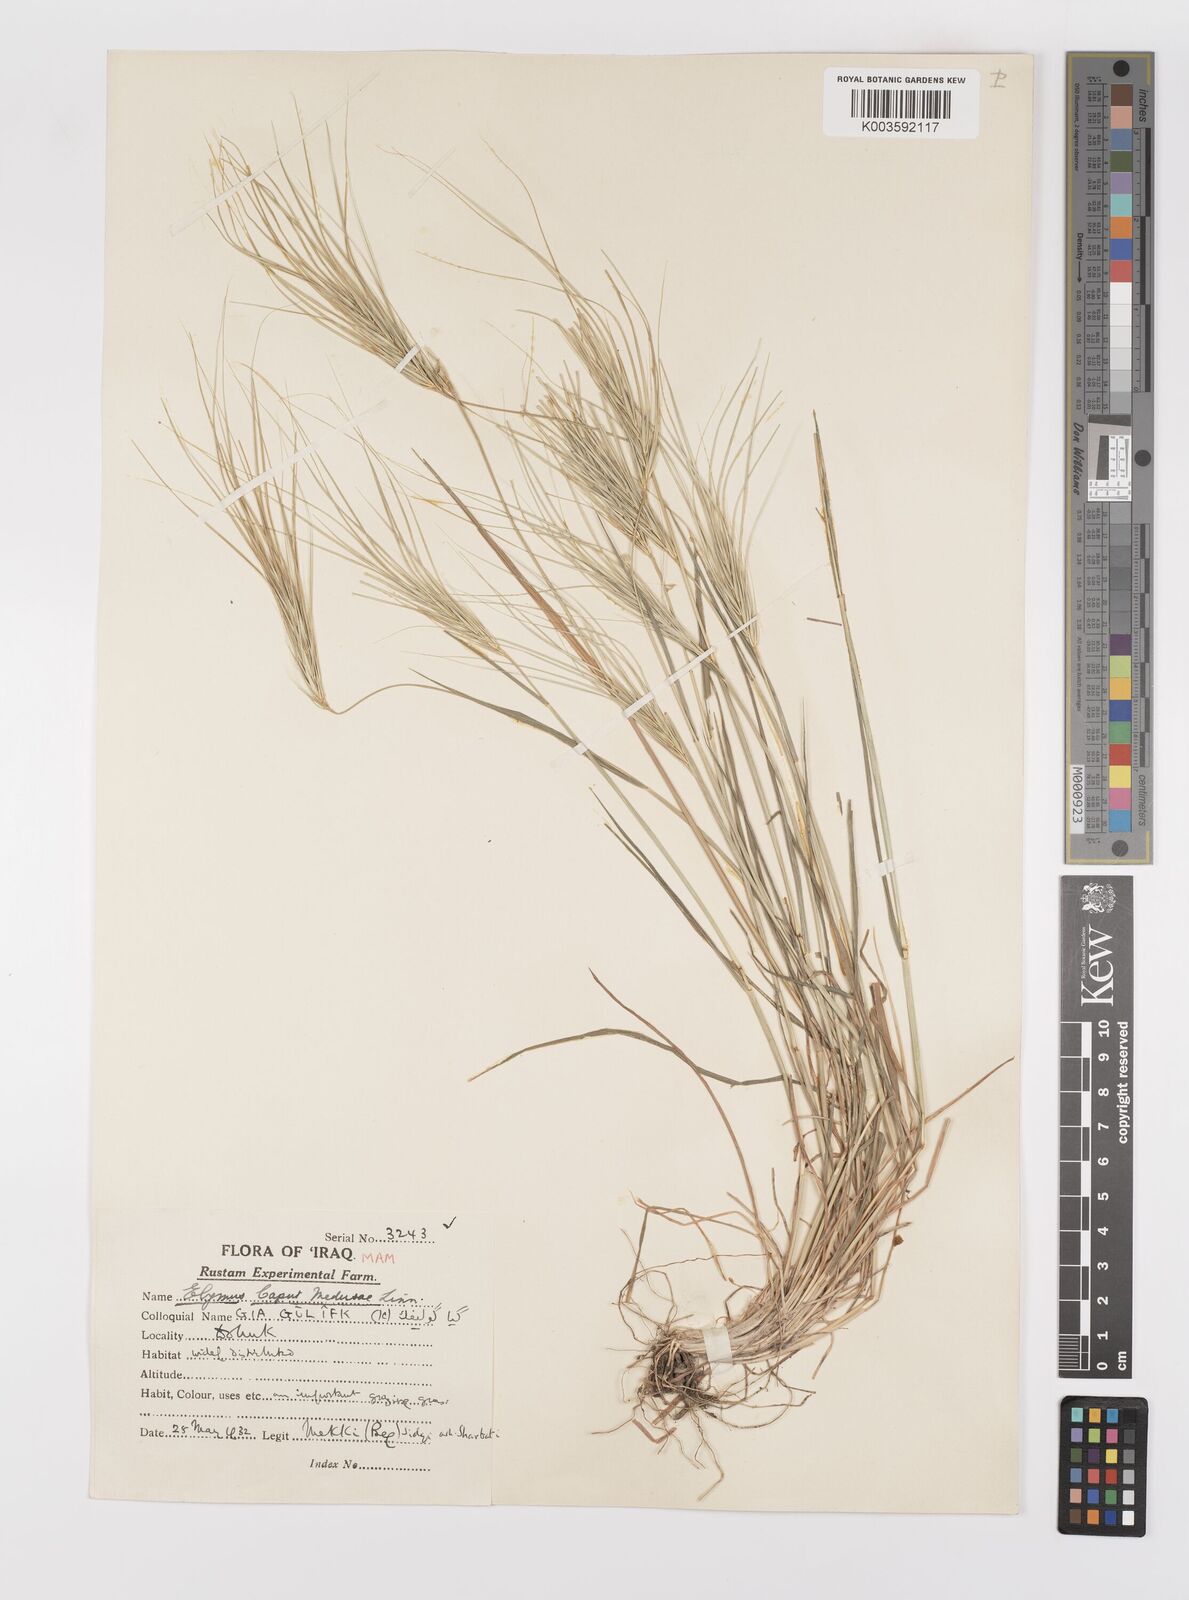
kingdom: Plantae
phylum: Tracheophyta
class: Liliopsida
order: Poales
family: Poaceae
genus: Taeniatherum
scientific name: Taeniatherum caput-medusae
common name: Medusahead
